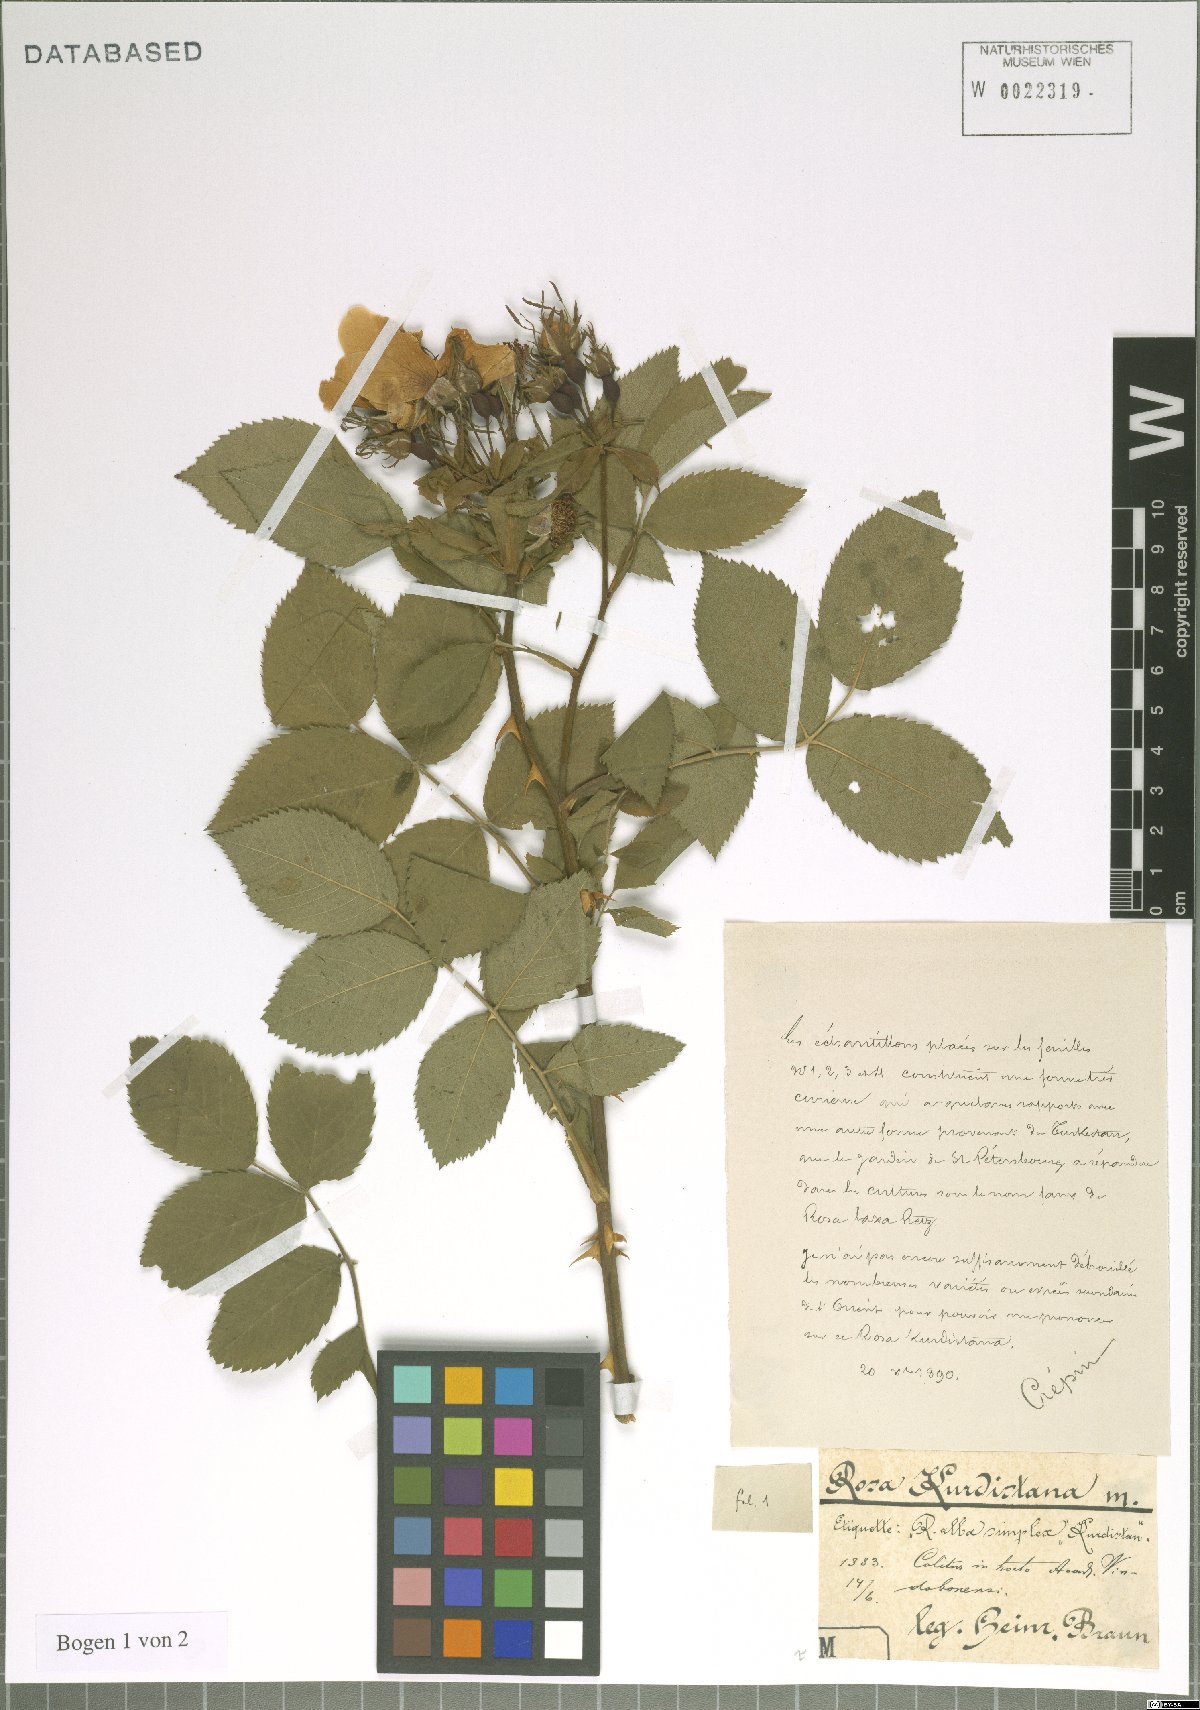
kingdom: Plantae
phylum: Tracheophyta
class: Magnoliopsida
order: Rosales
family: Rosaceae
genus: Rosa
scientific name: Rosa
